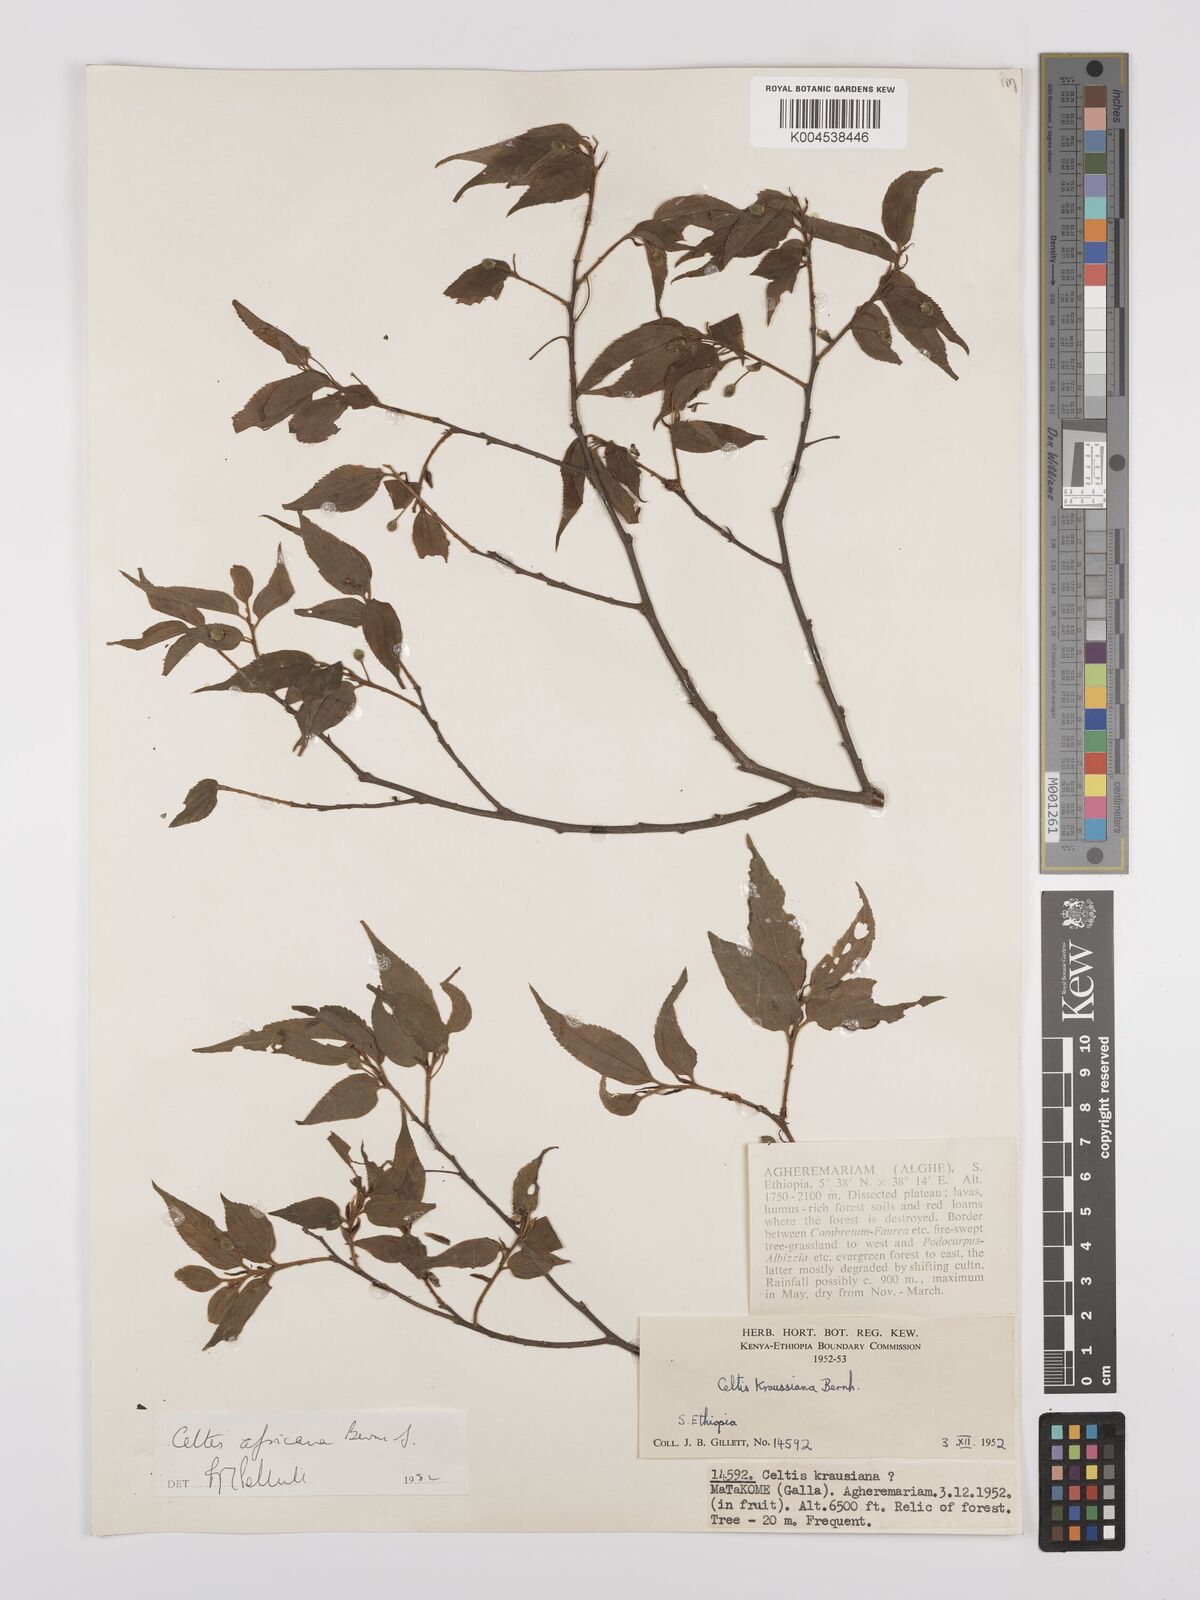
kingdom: Plantae
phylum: Tracheophyta
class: Magnoliopsida
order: Rosales
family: Cannabaceae
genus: Celtis
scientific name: Celtis africana
